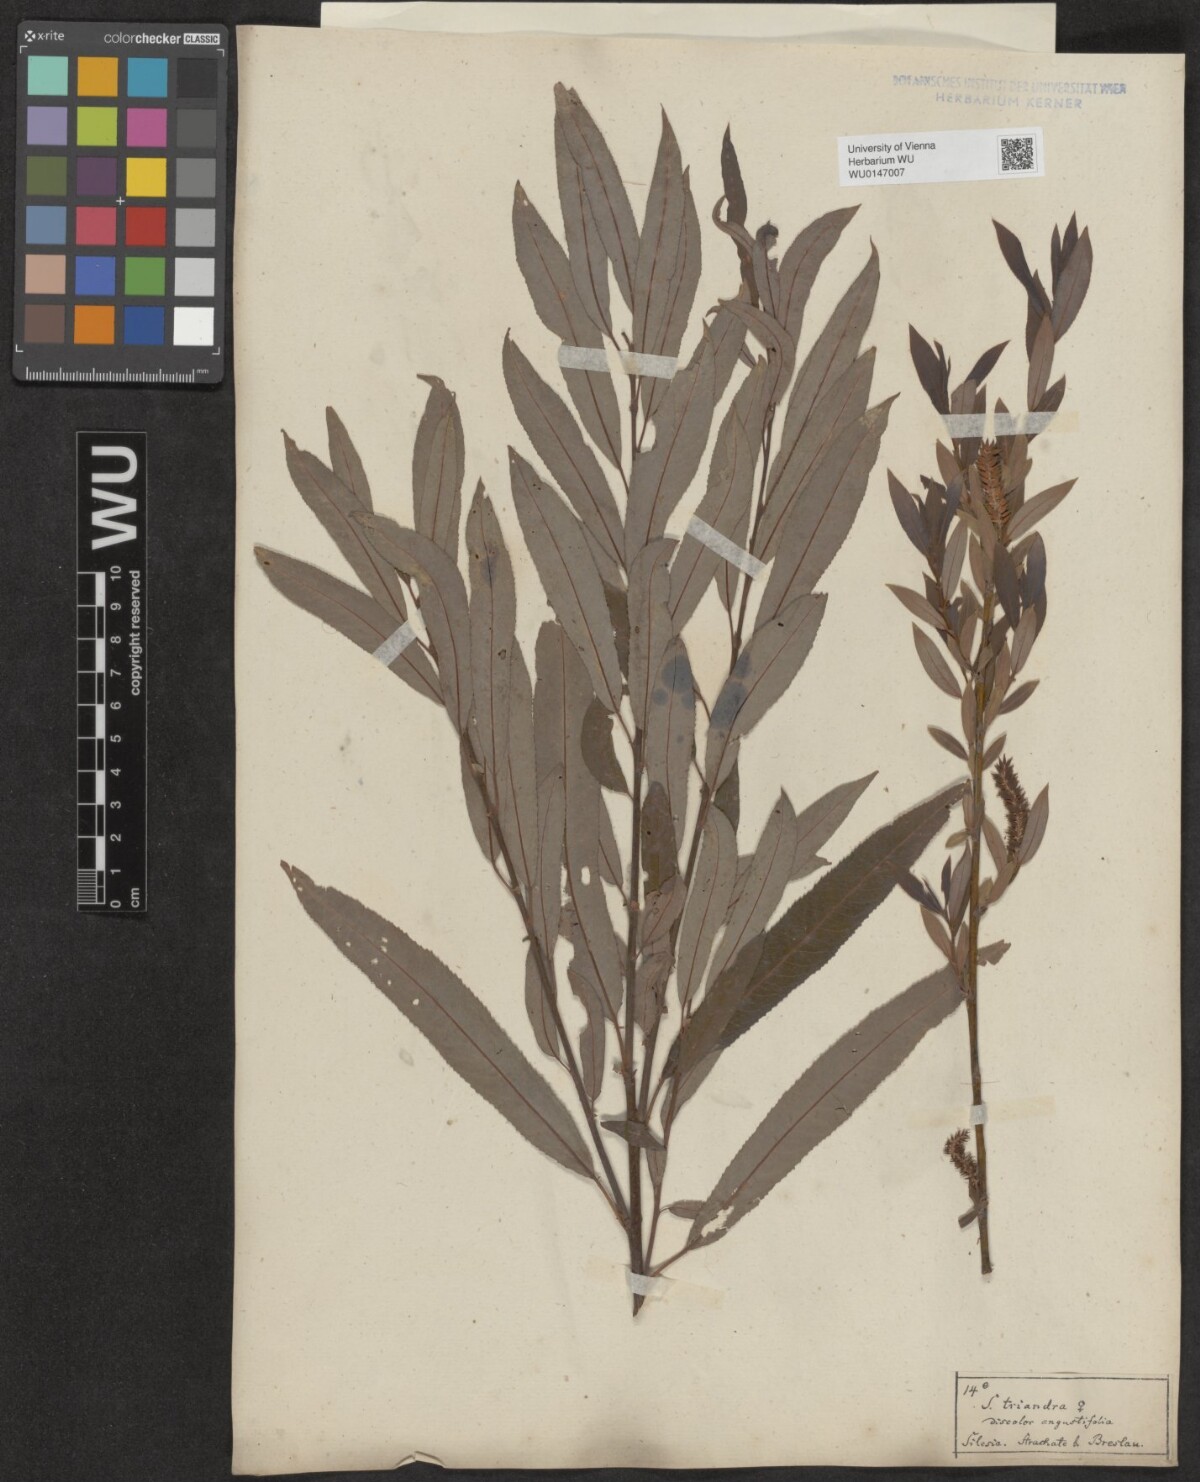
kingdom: Plantae
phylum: Tracheophyta
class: Magnoliopsida
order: Malpighiales
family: Salicaceae
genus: Salix
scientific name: Salix triandra
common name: Almond willow
